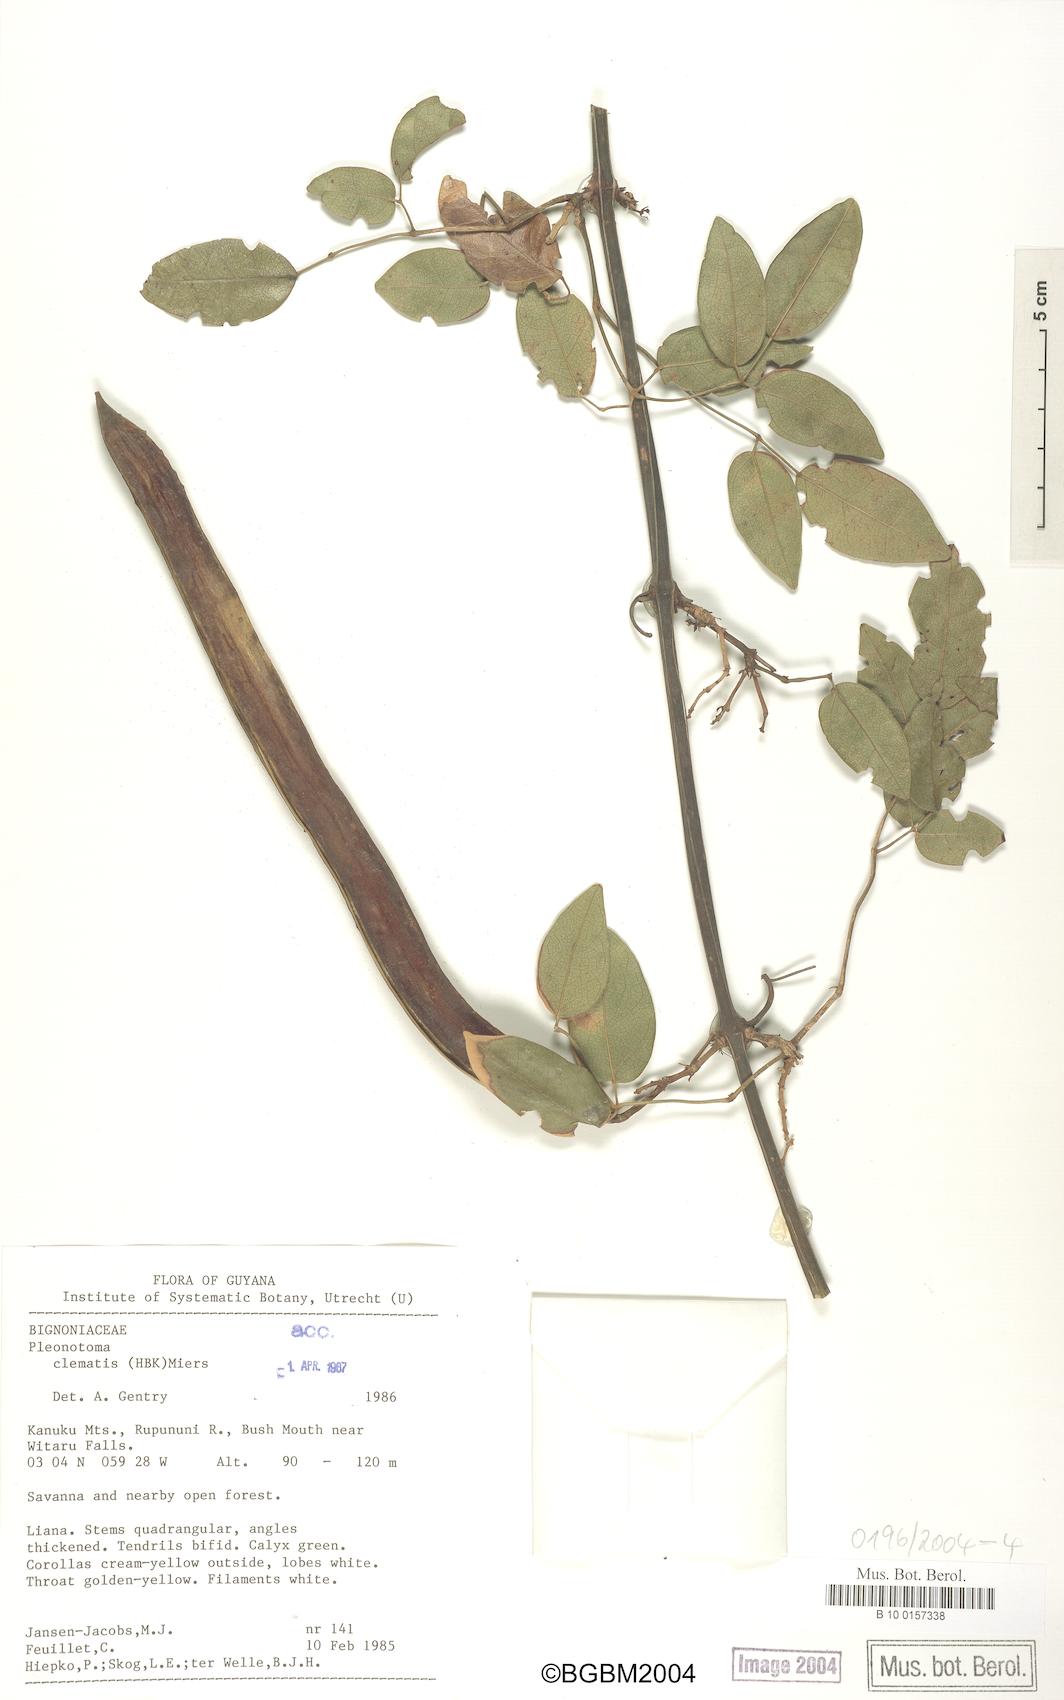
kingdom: Plantae
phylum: Tracheophyta
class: Magnoliopsida
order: Lamiales
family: Bignoniaceae
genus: Pleonotoma
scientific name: Pleonotoma clematis
